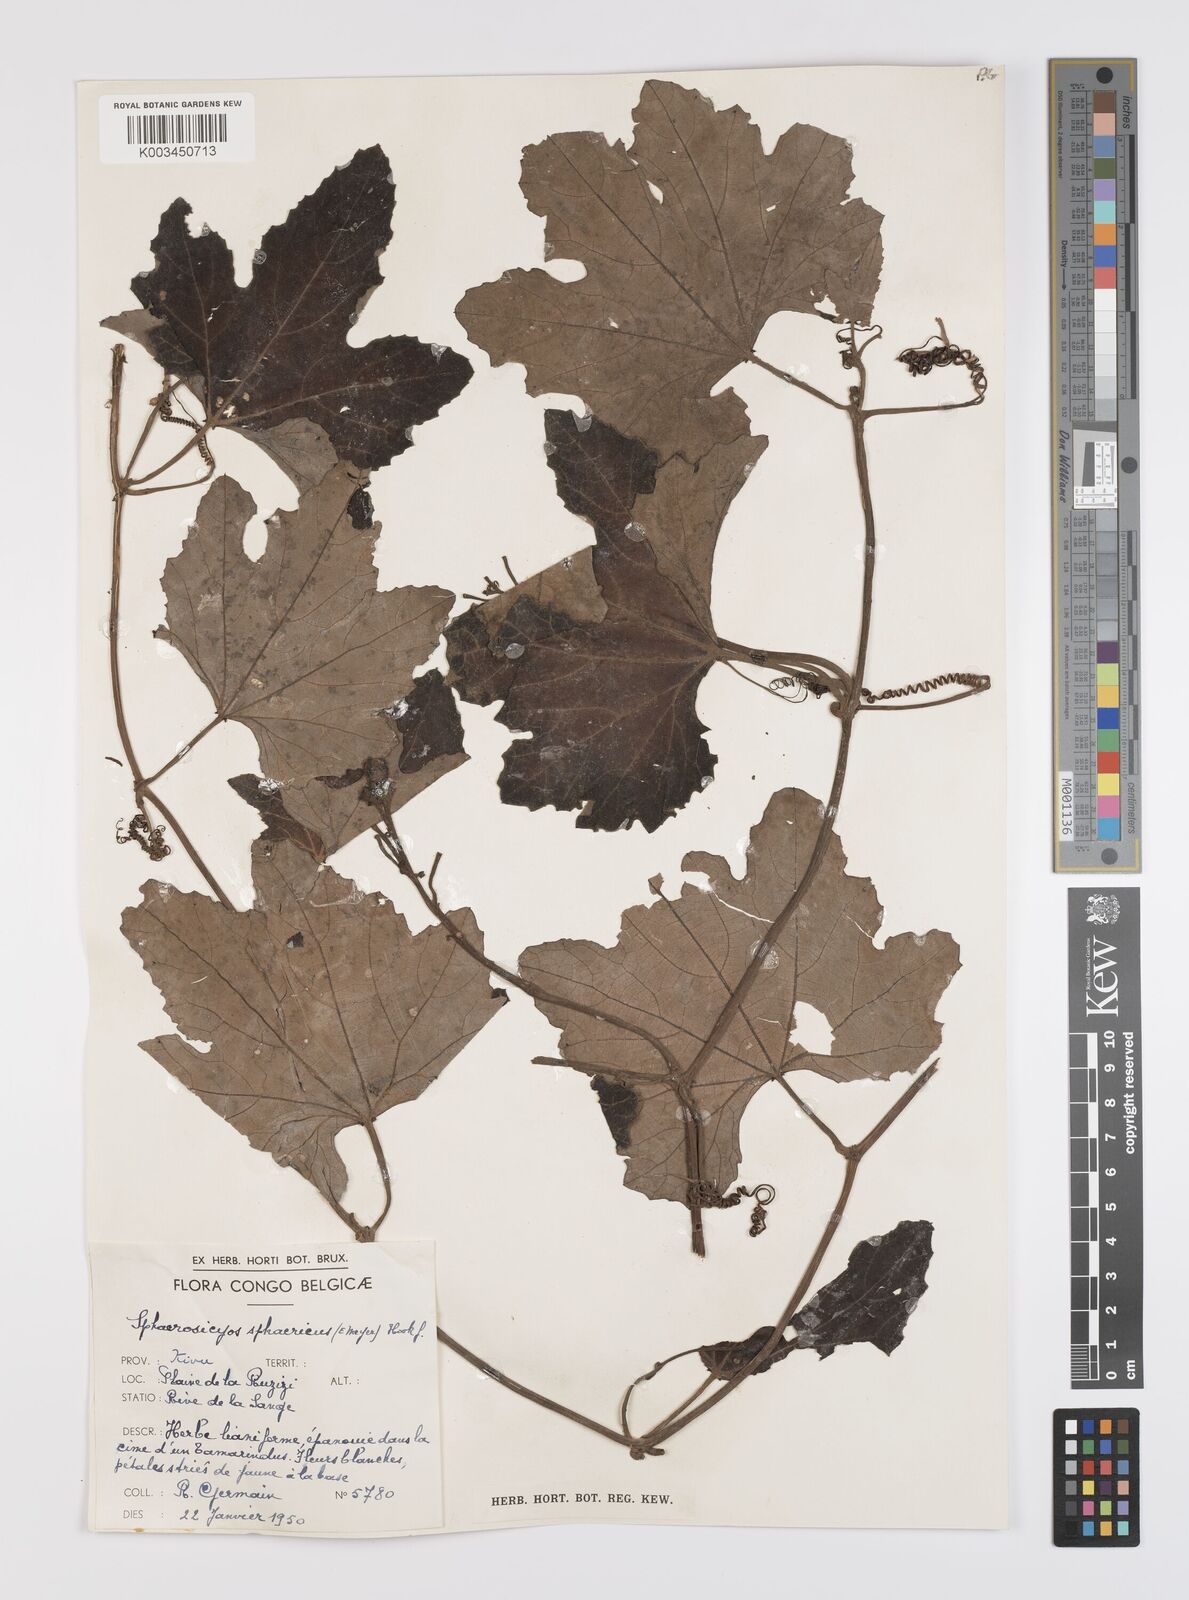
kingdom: Plantae
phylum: Tracheophyta
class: Magnoliopsida
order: Cucurbitales
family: Cucurbitaceae
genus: Lagenaria
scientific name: Lagenaria sphaerica
